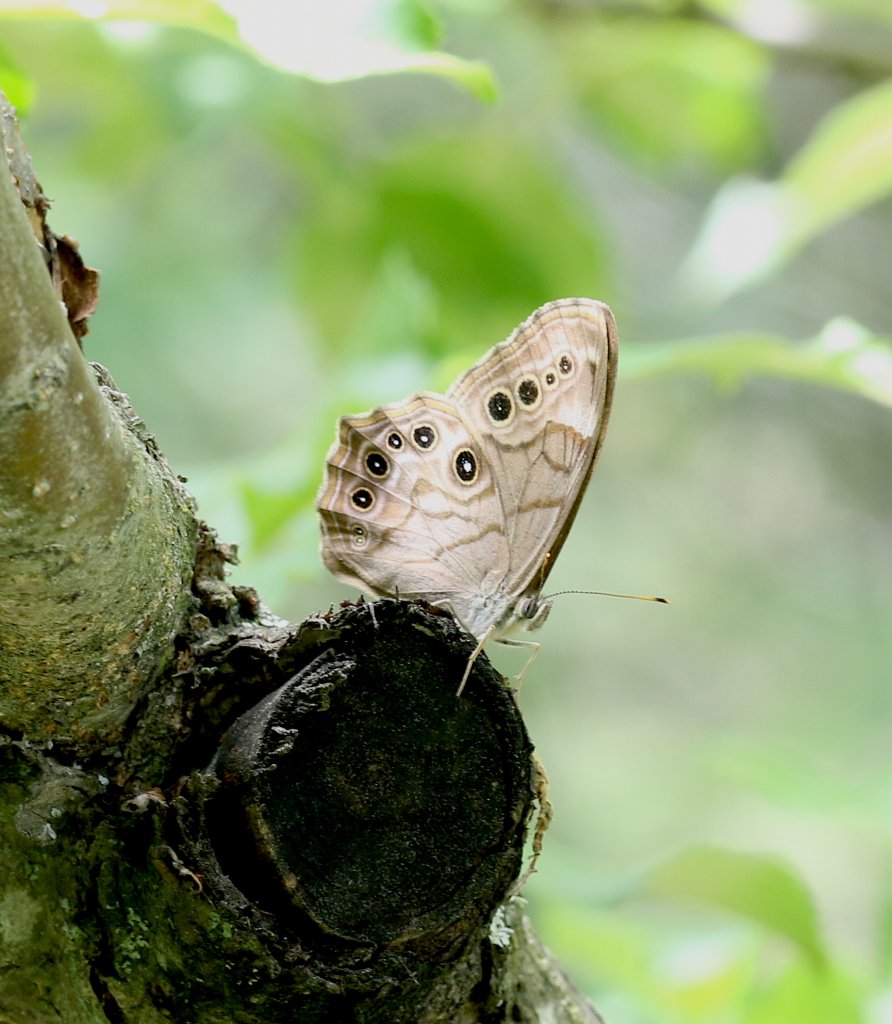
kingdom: Animalia
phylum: Arthropoda
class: Insecta
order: Lepidoptera
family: Nymphalidae
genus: Lethe
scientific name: Lethe anthedon
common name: Northern Pearly-Eye
